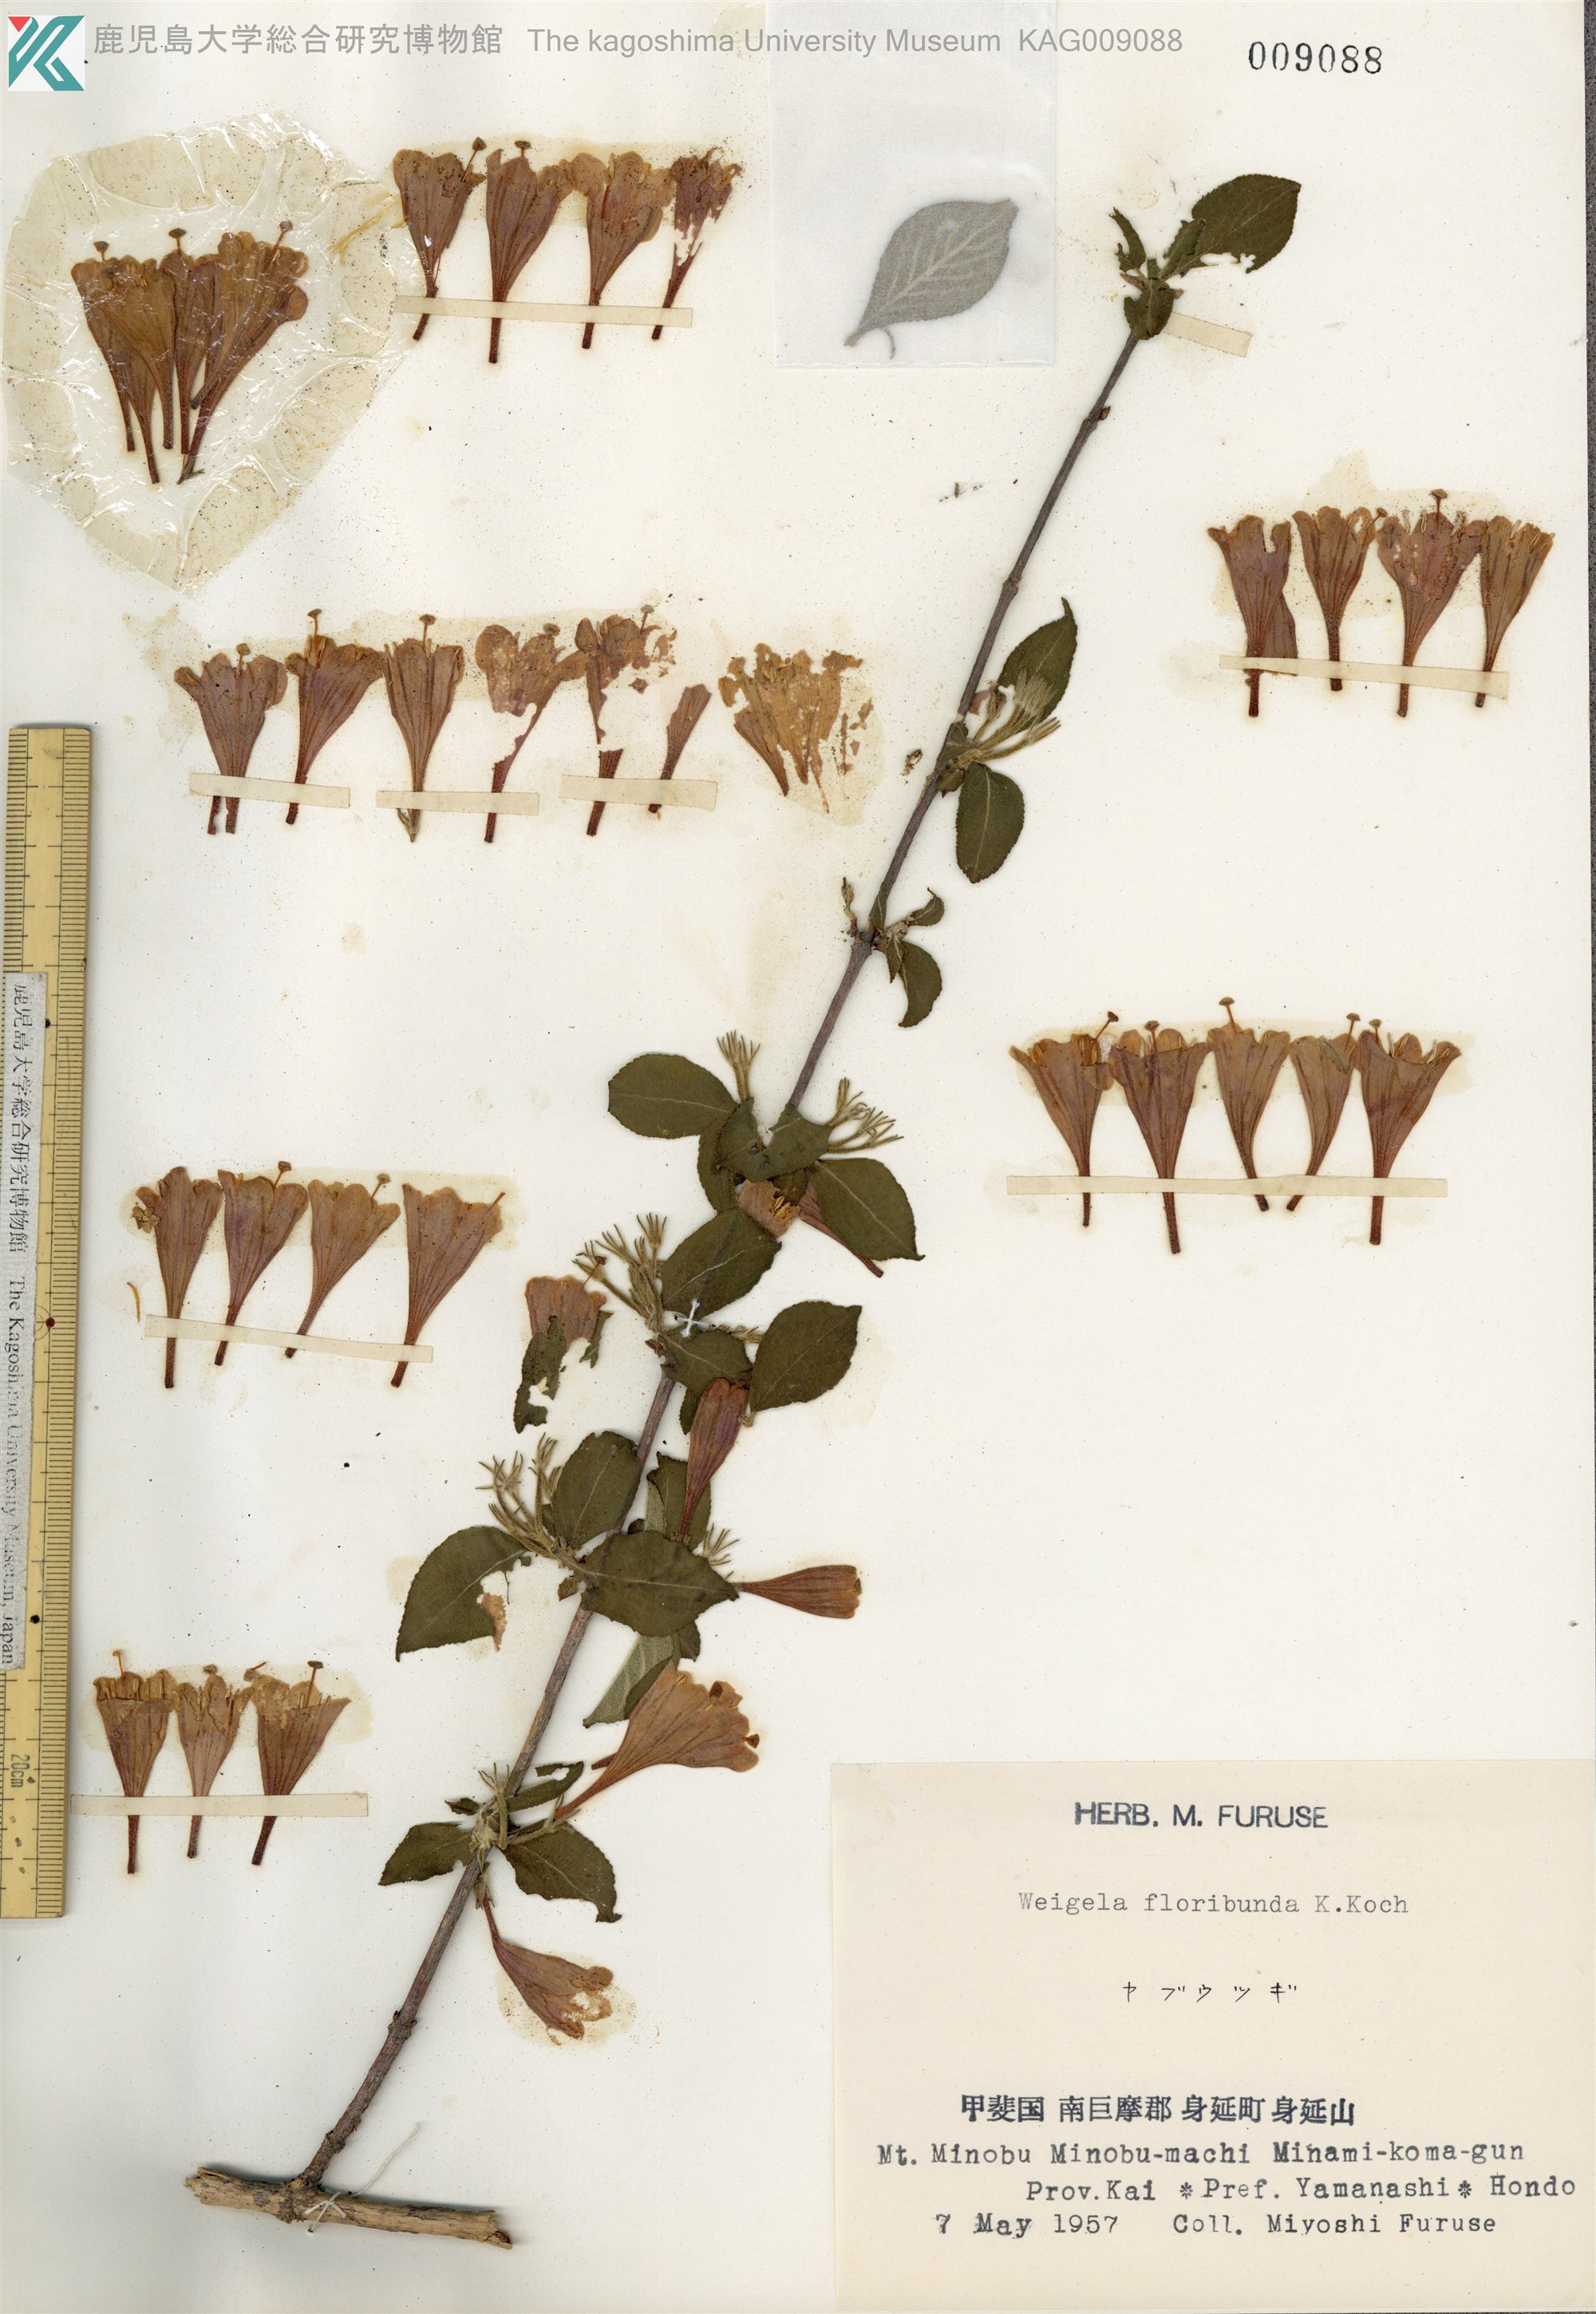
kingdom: Plantae
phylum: Tracheophyta
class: Magnoliopsida
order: Dipsacales
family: Caprifoliaceae
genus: Weigela
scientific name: Weigela floribunda
